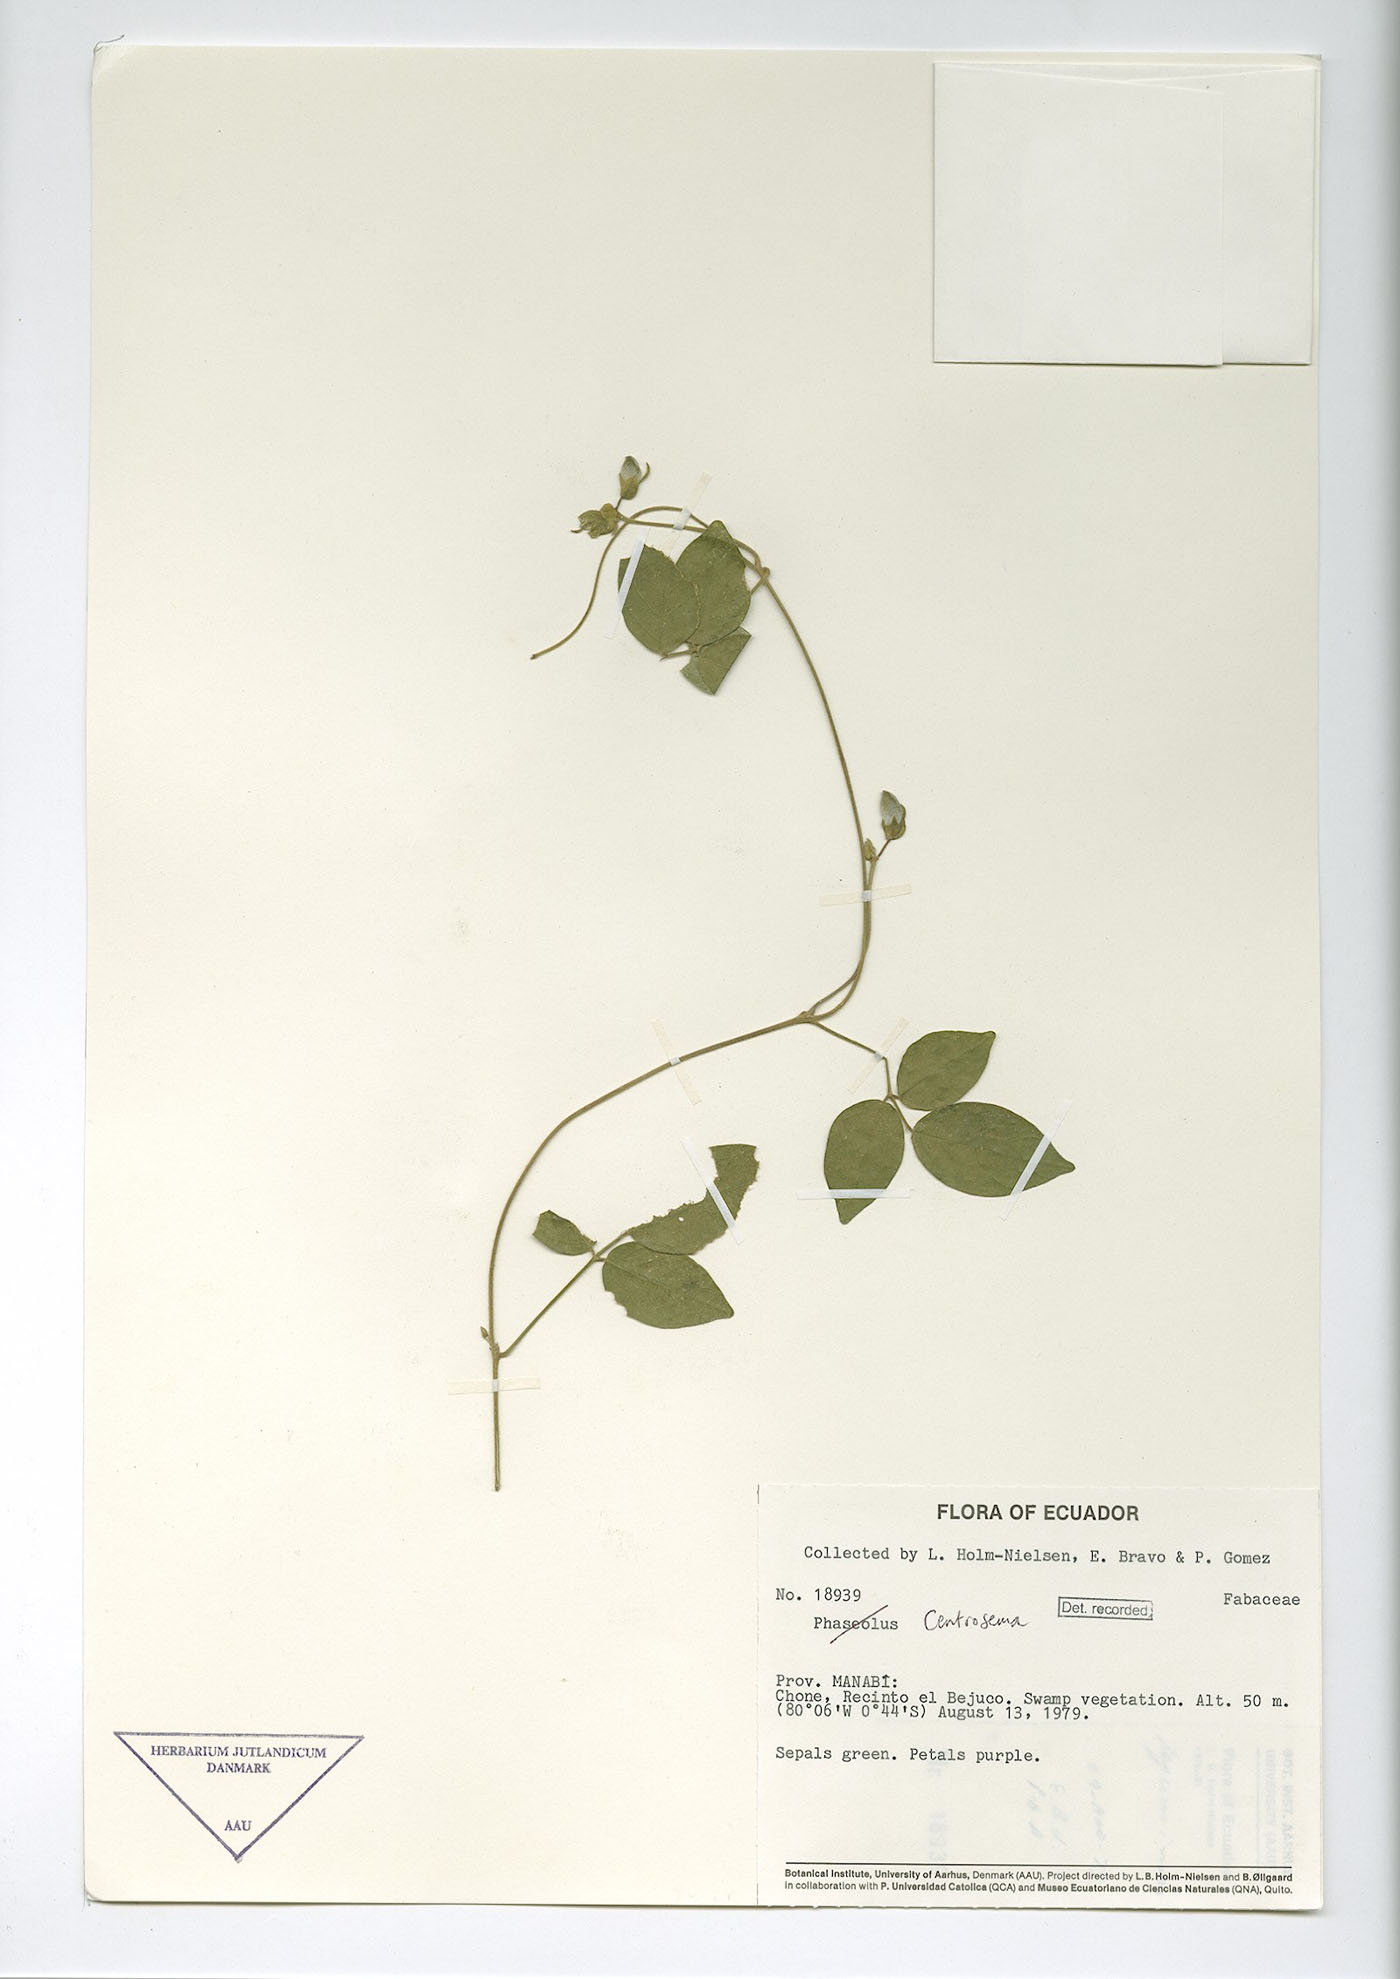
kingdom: Plantae
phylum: Tracheophyta
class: Magnoliopsida
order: Fabales
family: Fabaceae
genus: Centrosema
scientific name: Centrosema molle
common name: Soft butterfly pea
